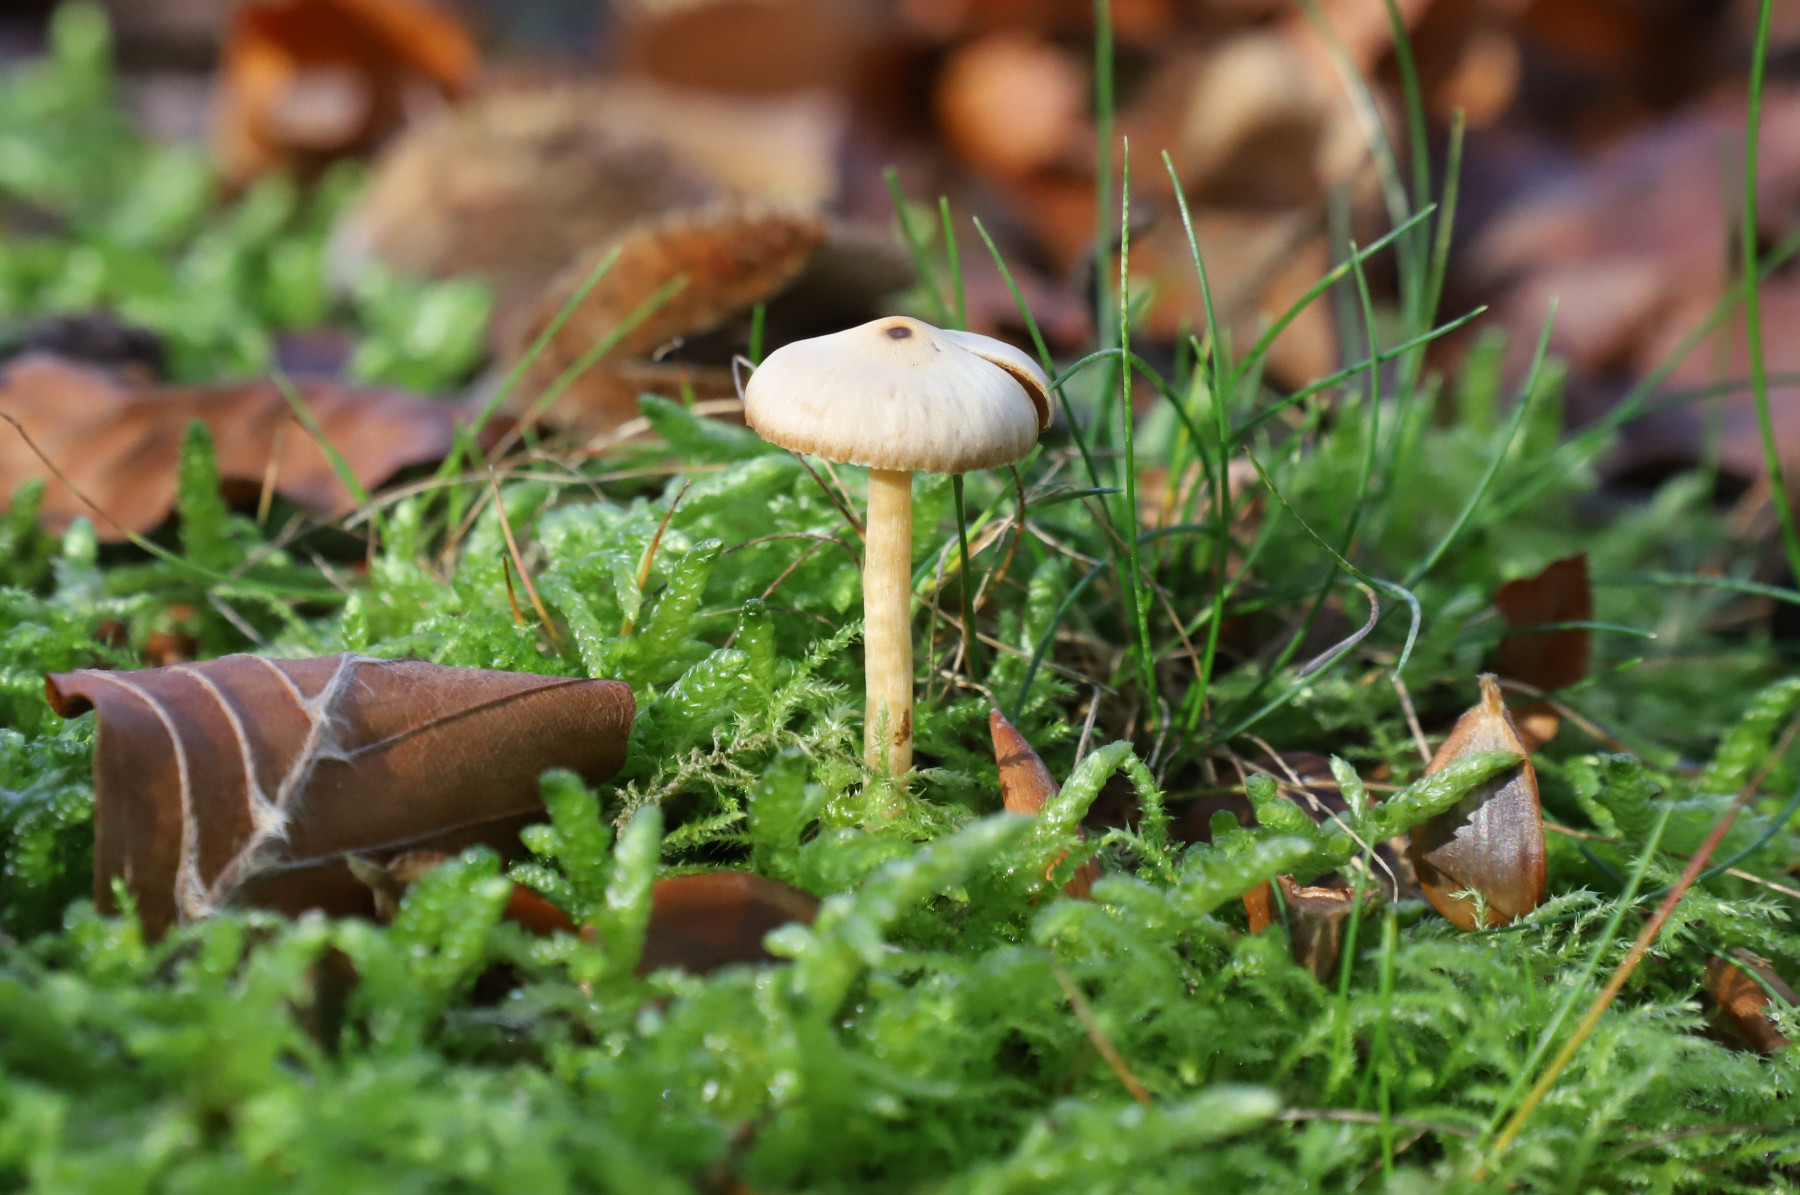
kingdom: Fungi
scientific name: Fungi
